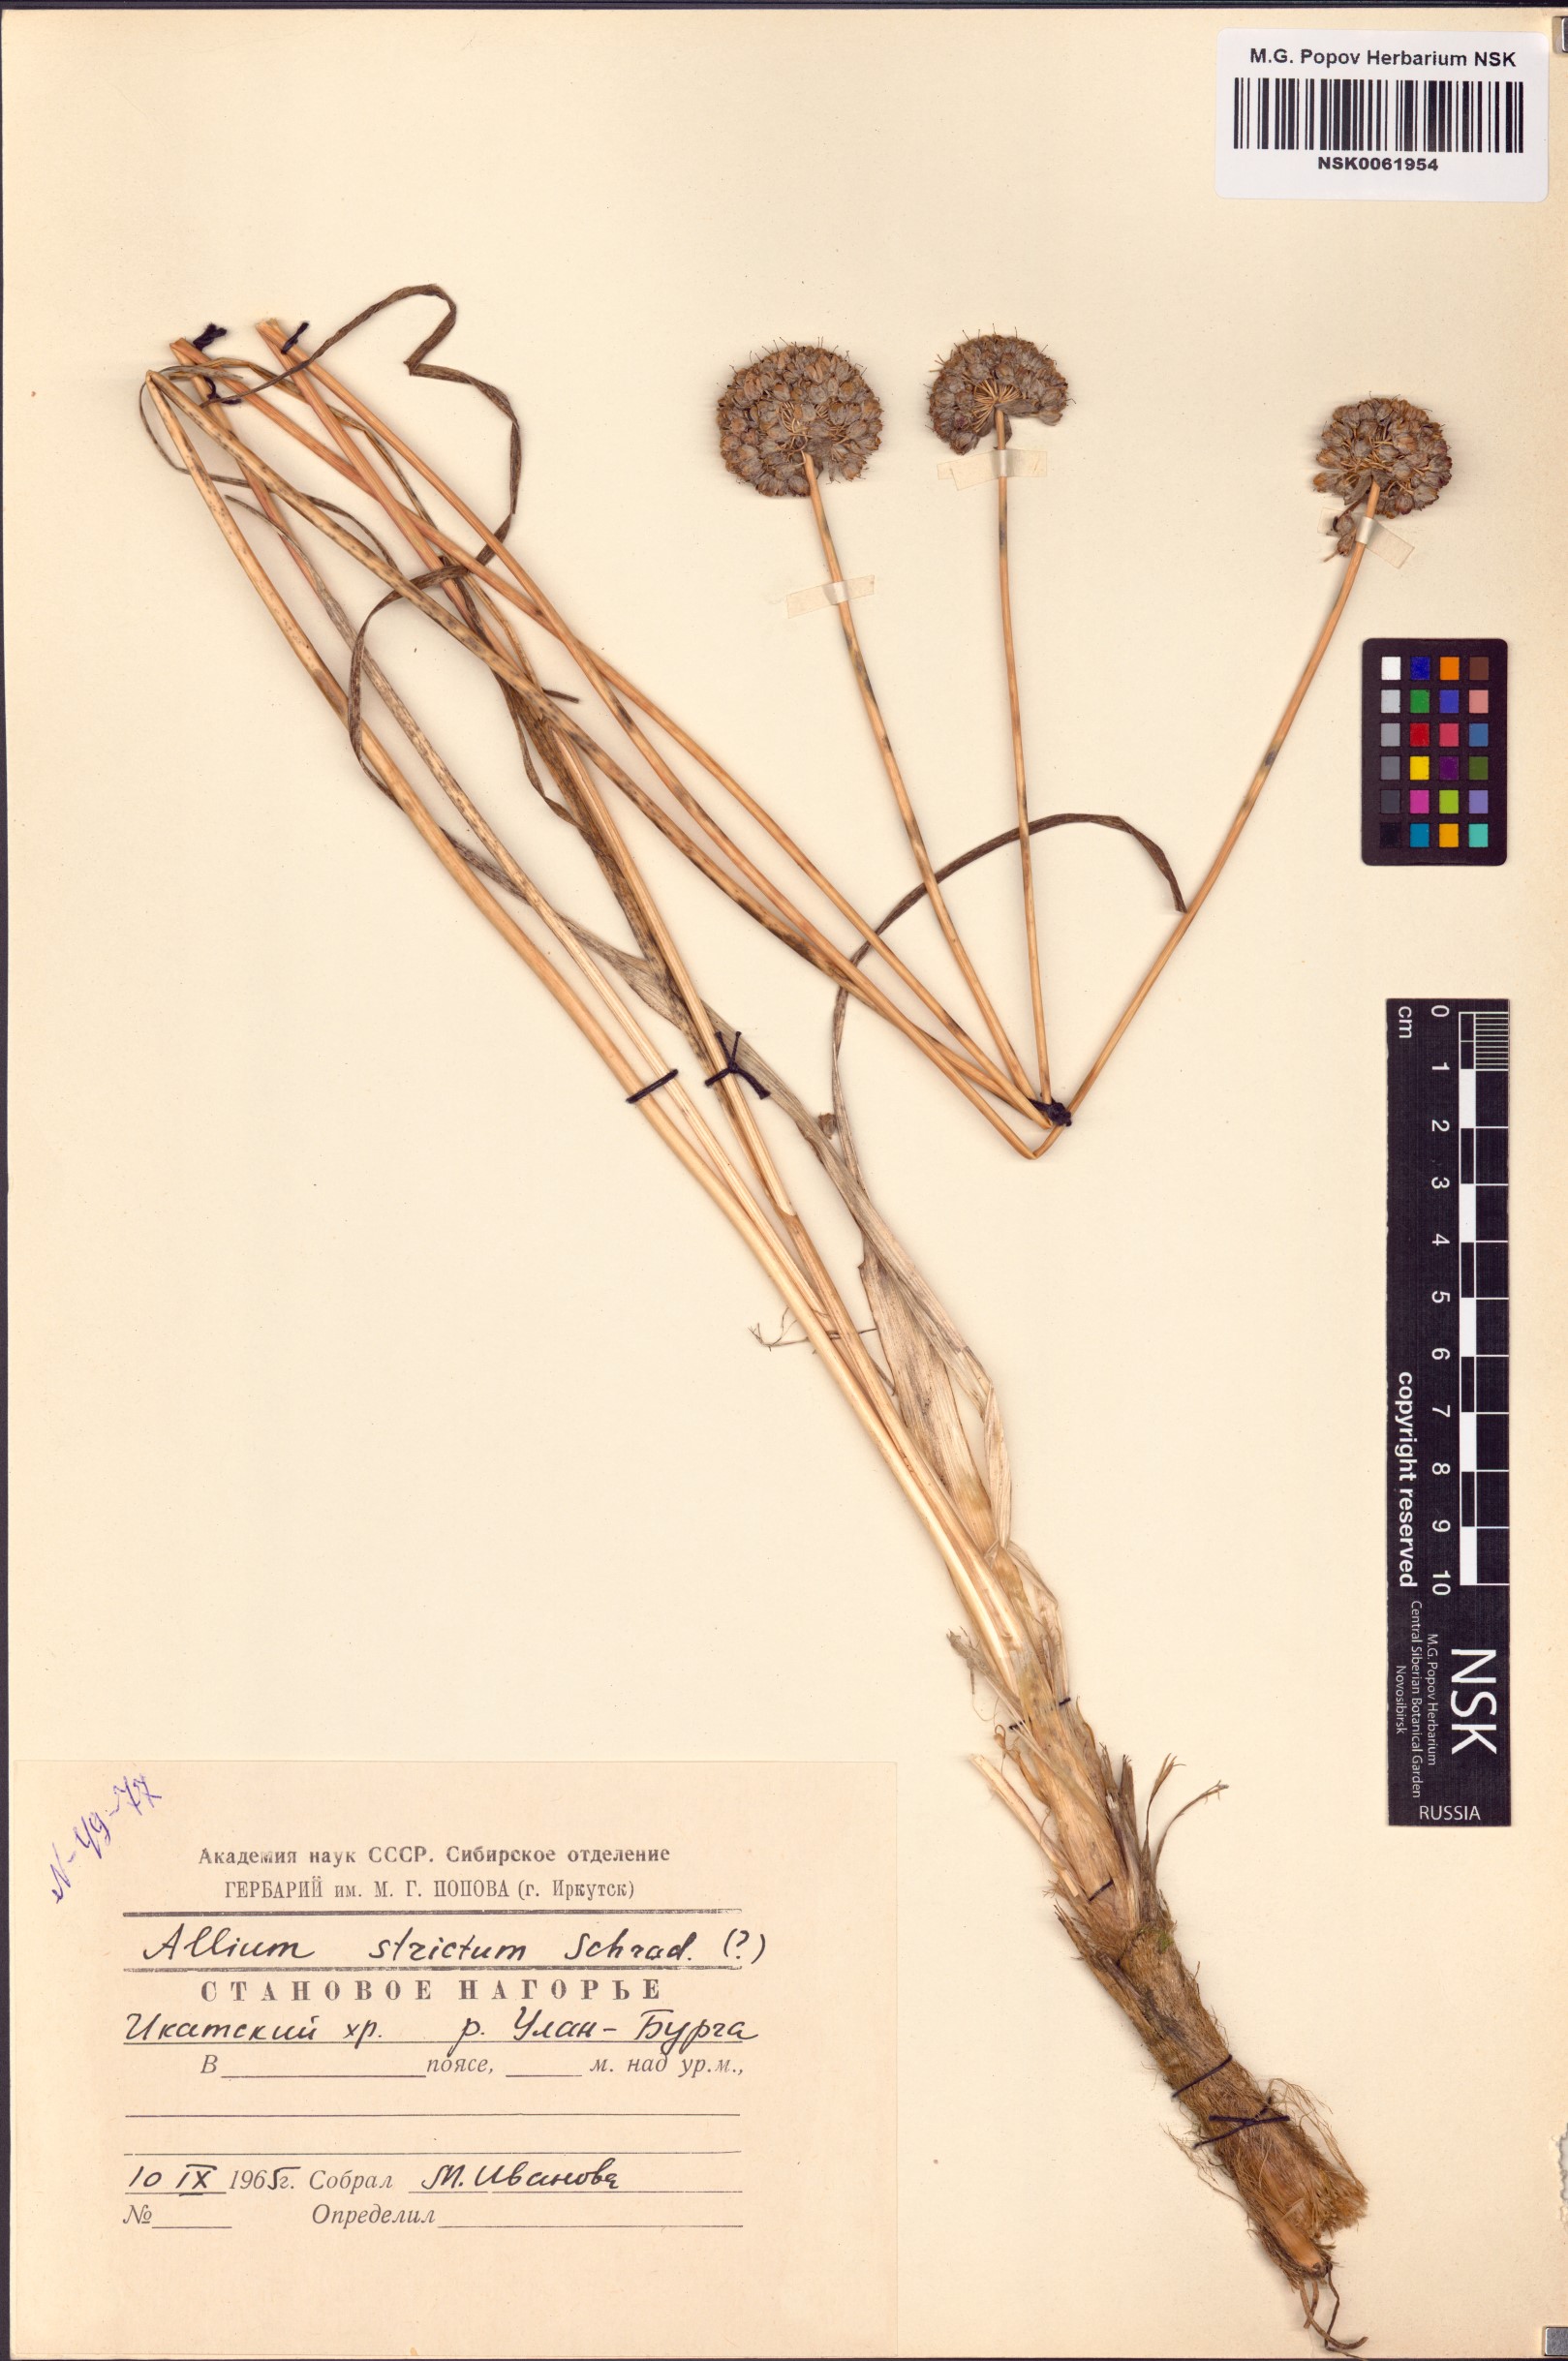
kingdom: Plantae
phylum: Tracheophyta
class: Liliopsida
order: Asparagales
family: Amaryllidaceae
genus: Allium
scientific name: Allium strictum
